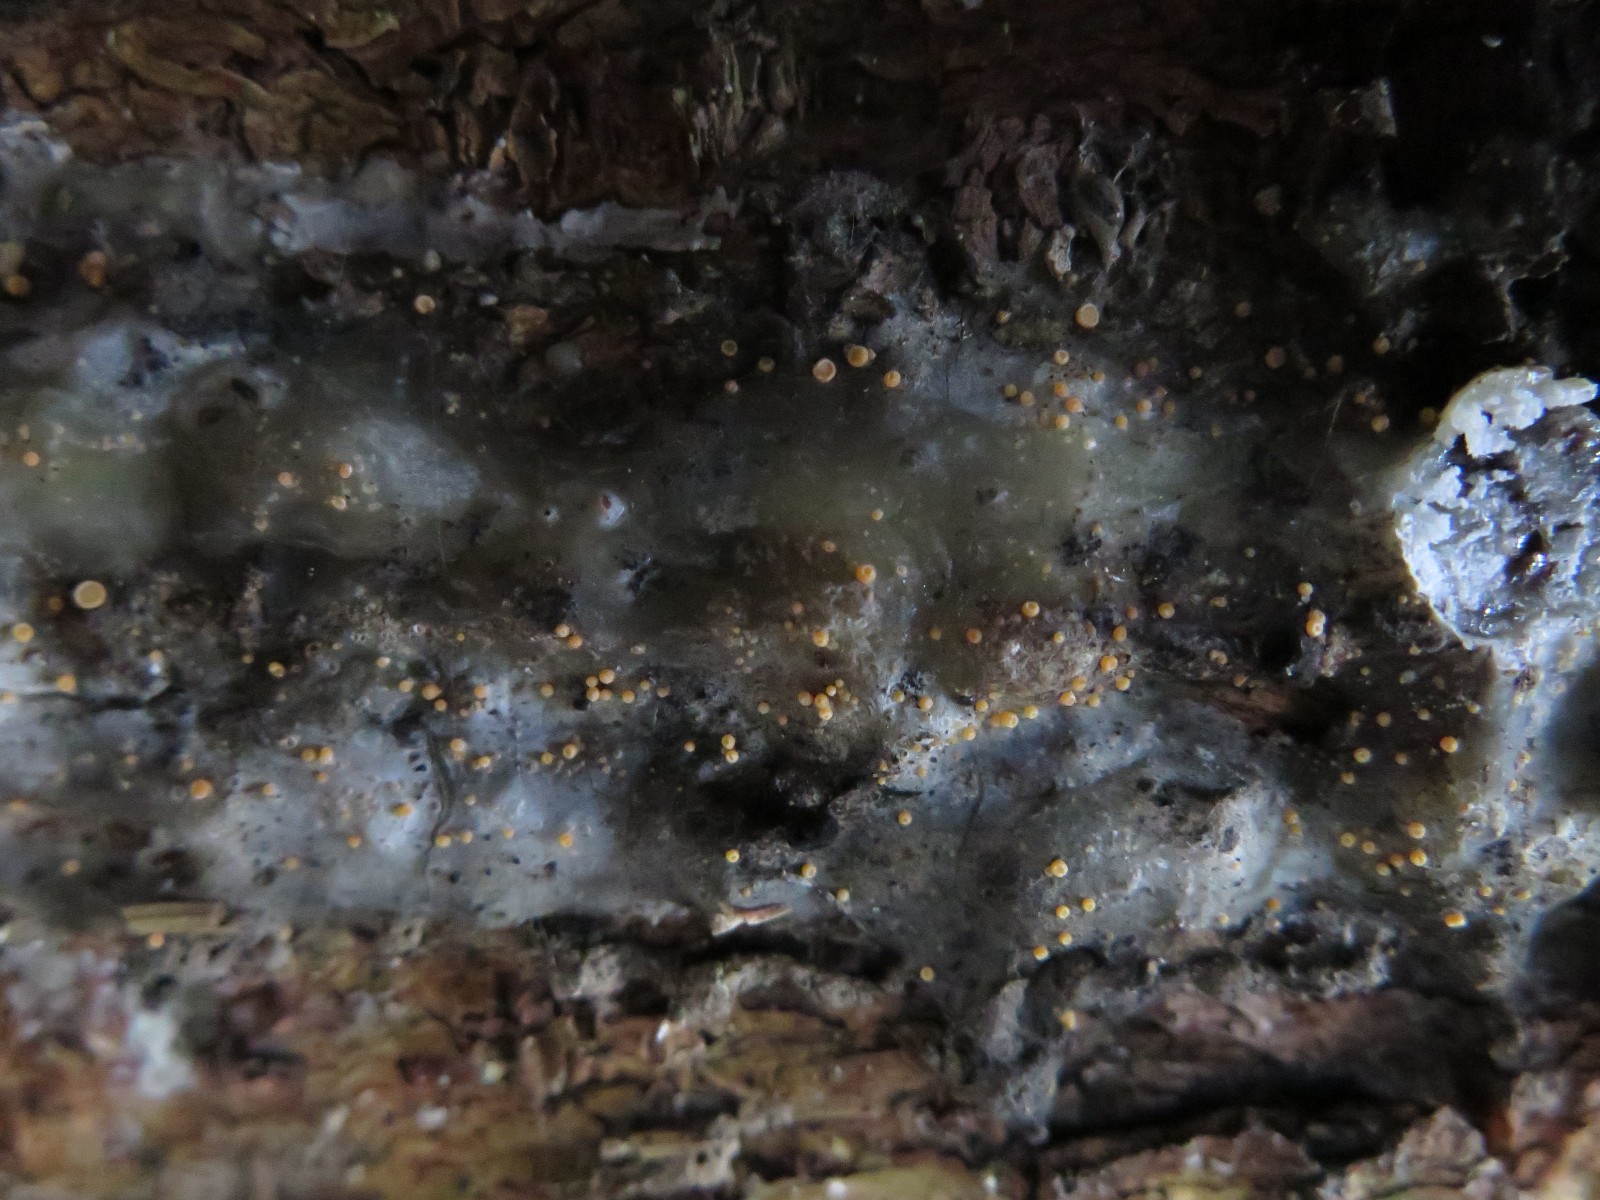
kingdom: Fungi
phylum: Ascomycota
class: Sareomycetes
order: Sareales
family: Sareaceae
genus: Sarea
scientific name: Sarea resinae
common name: orangegul harpiksskive
